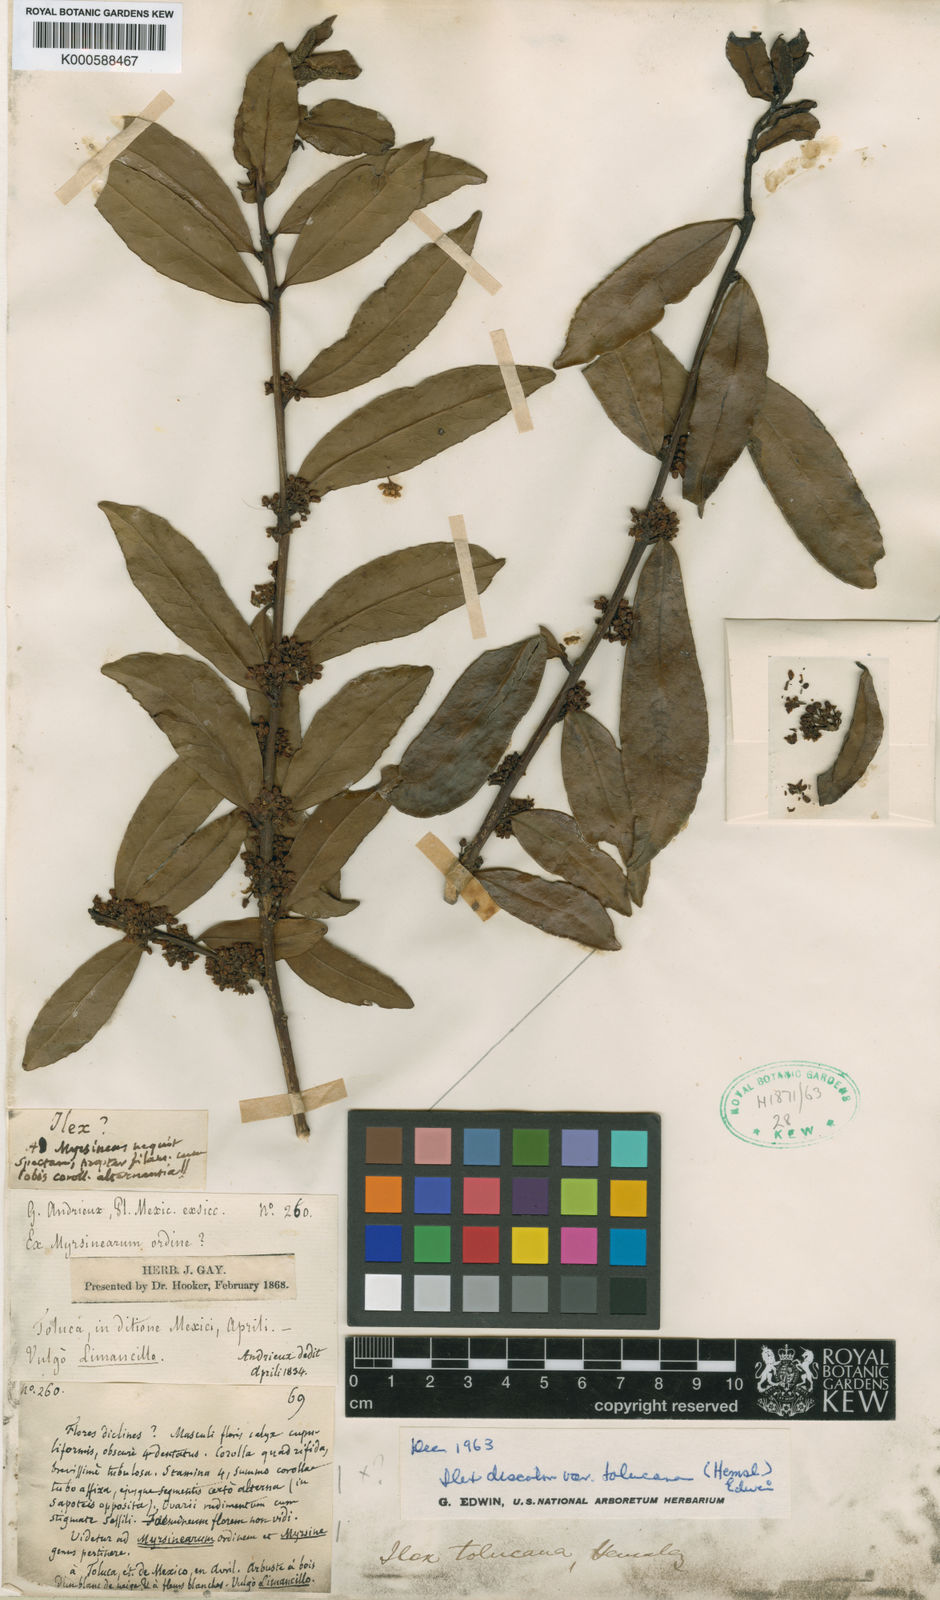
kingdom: Plantae
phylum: Tracheophyta
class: Magnoliopsida
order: Aquifoliales
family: Aquifoliaceae
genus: Ilex
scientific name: Ilex discolor
